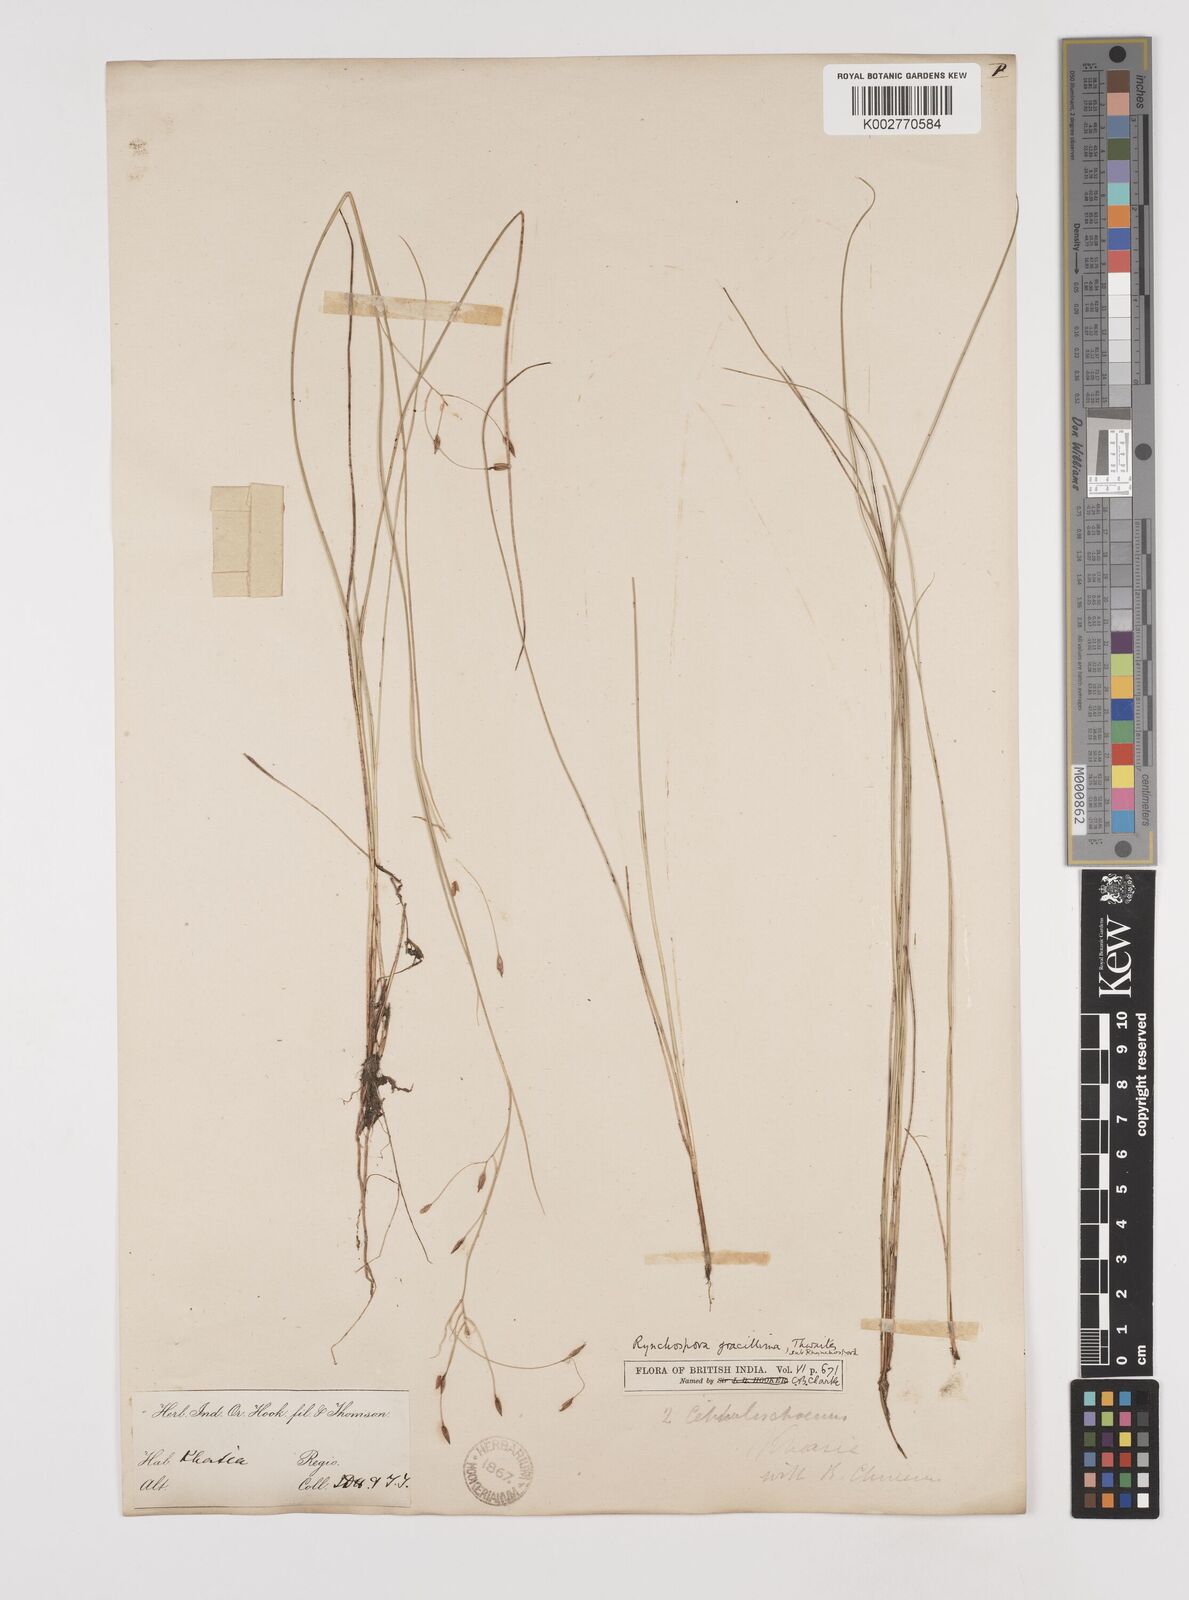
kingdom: Plantae
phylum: Tracheophyta
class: Liliopsida
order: Poales
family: Cyperaceae
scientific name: Cyperaceae
